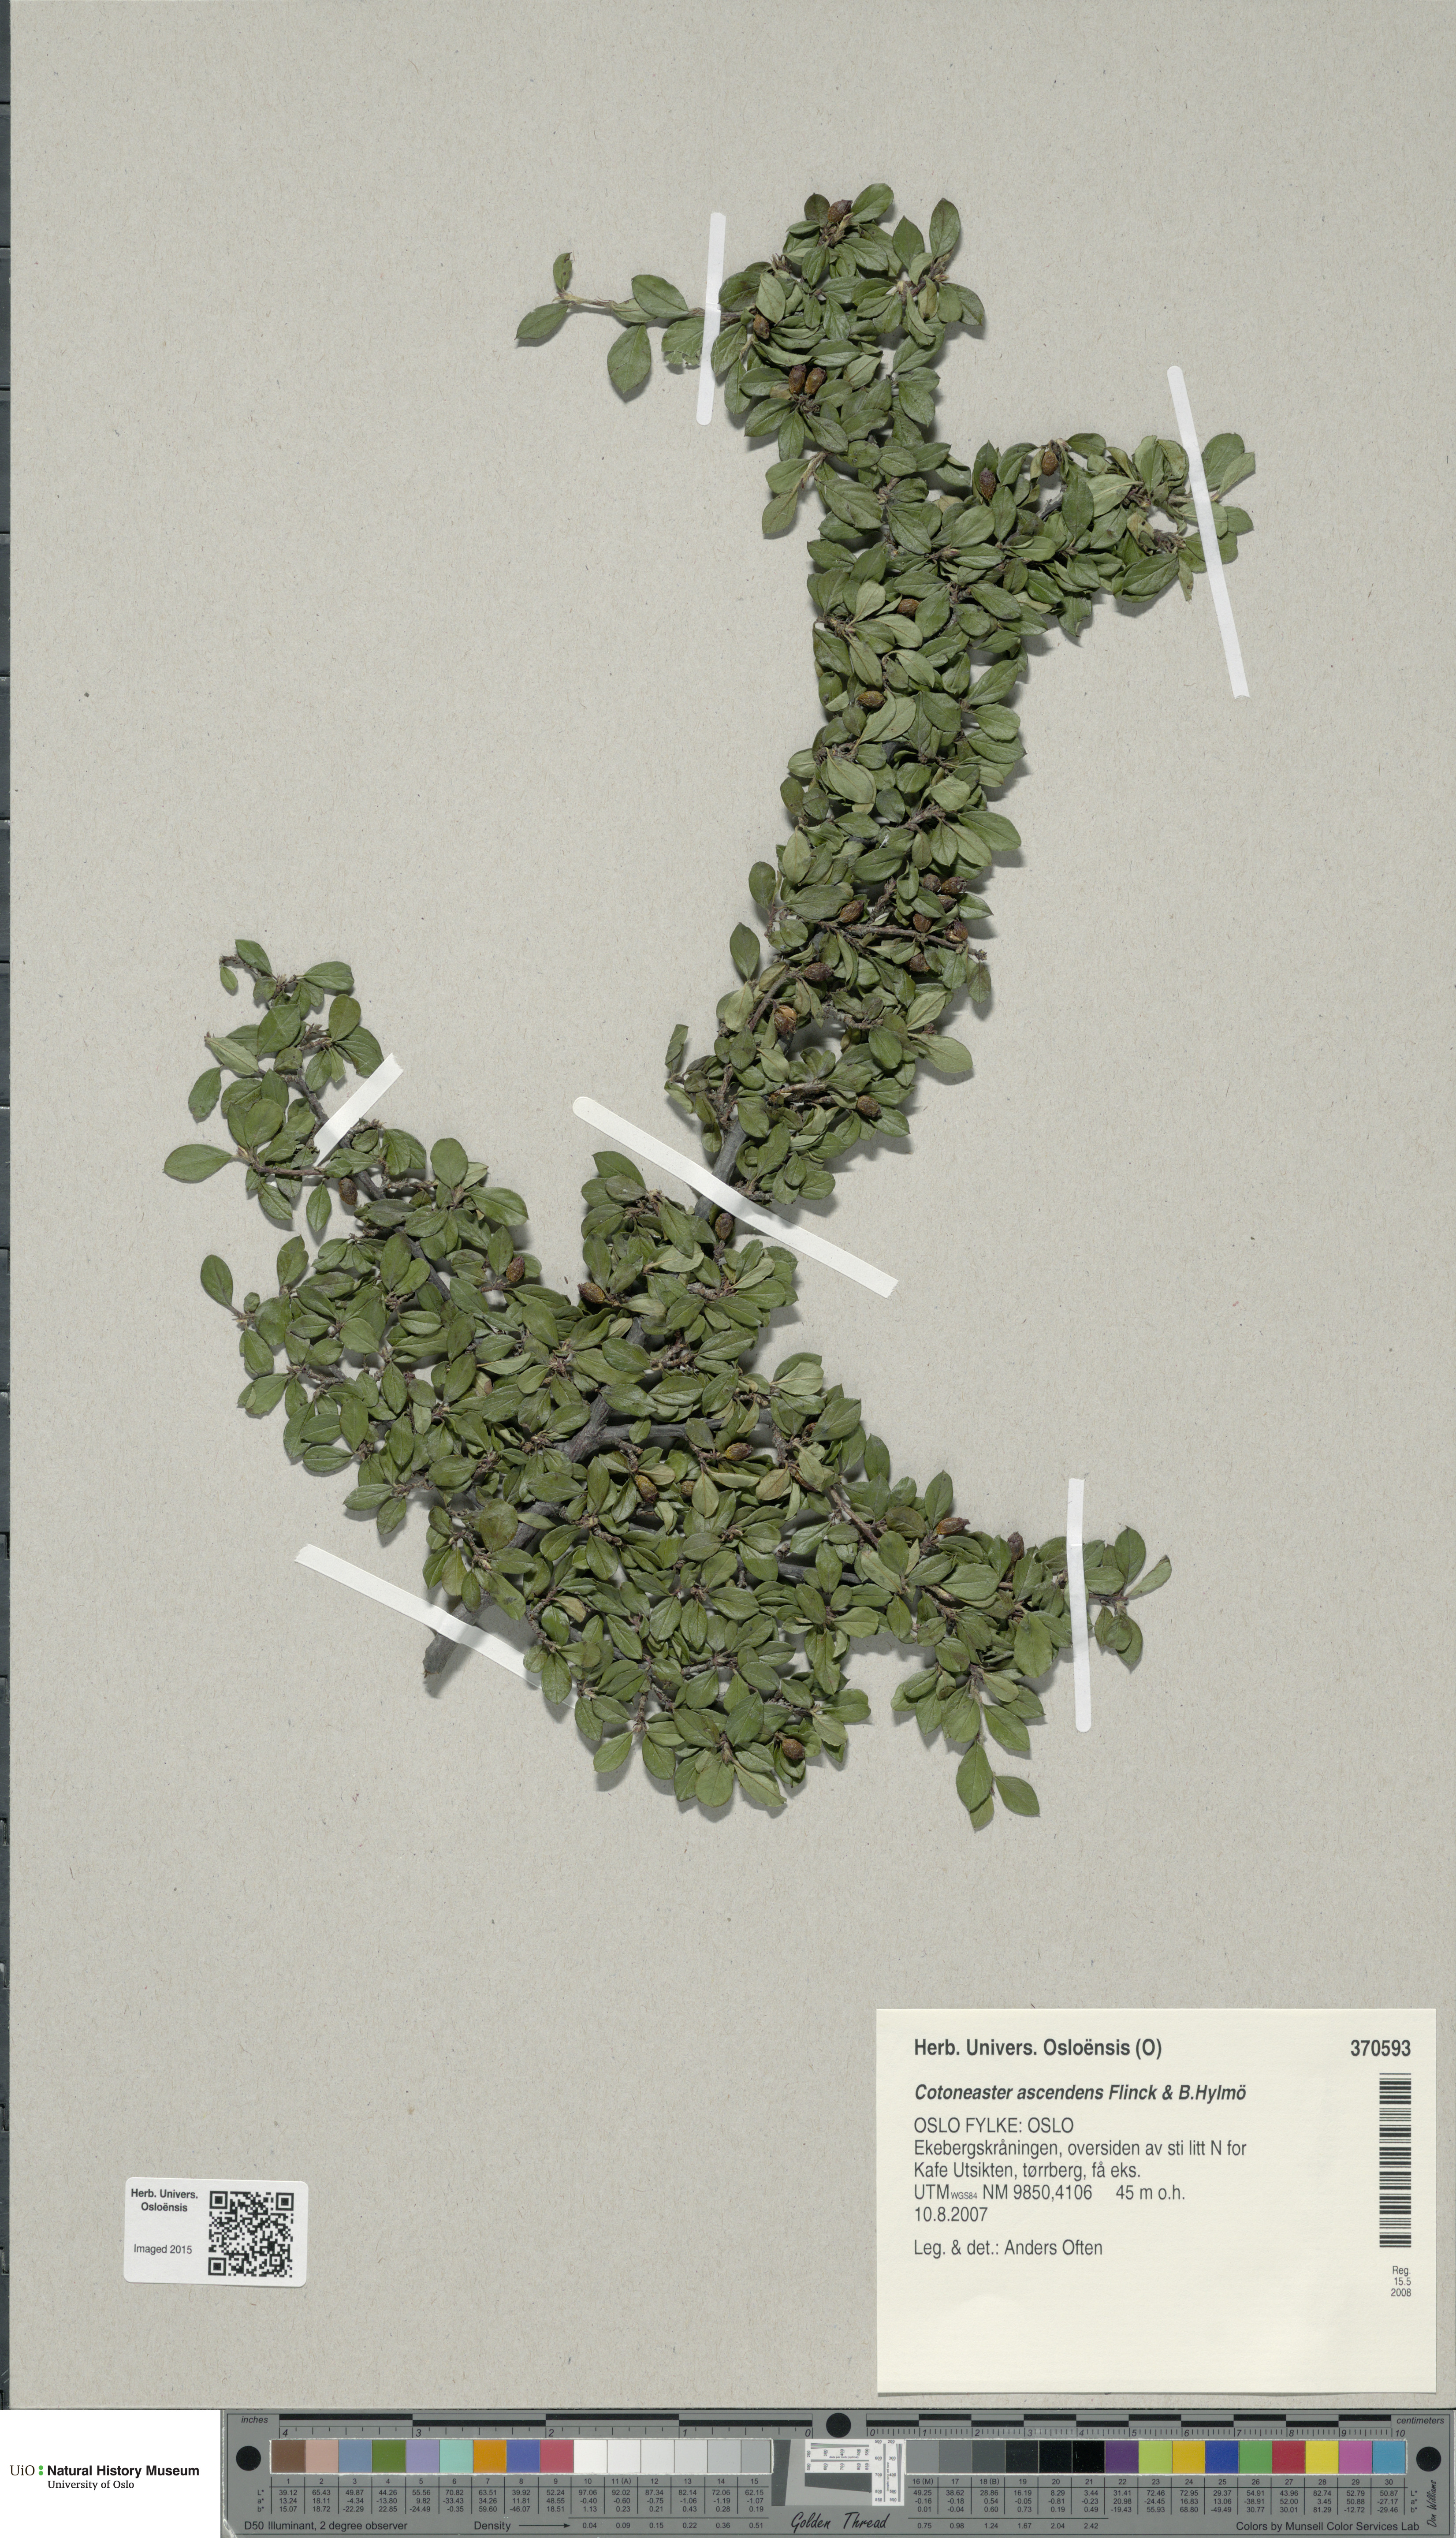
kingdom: Plantae
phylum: Tracheophyta
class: Magnoliopsida
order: Rosales
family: Rosaceae
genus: Cotoneaster
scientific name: Cotoneaster ascendens
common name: Ascending cotoneaster
